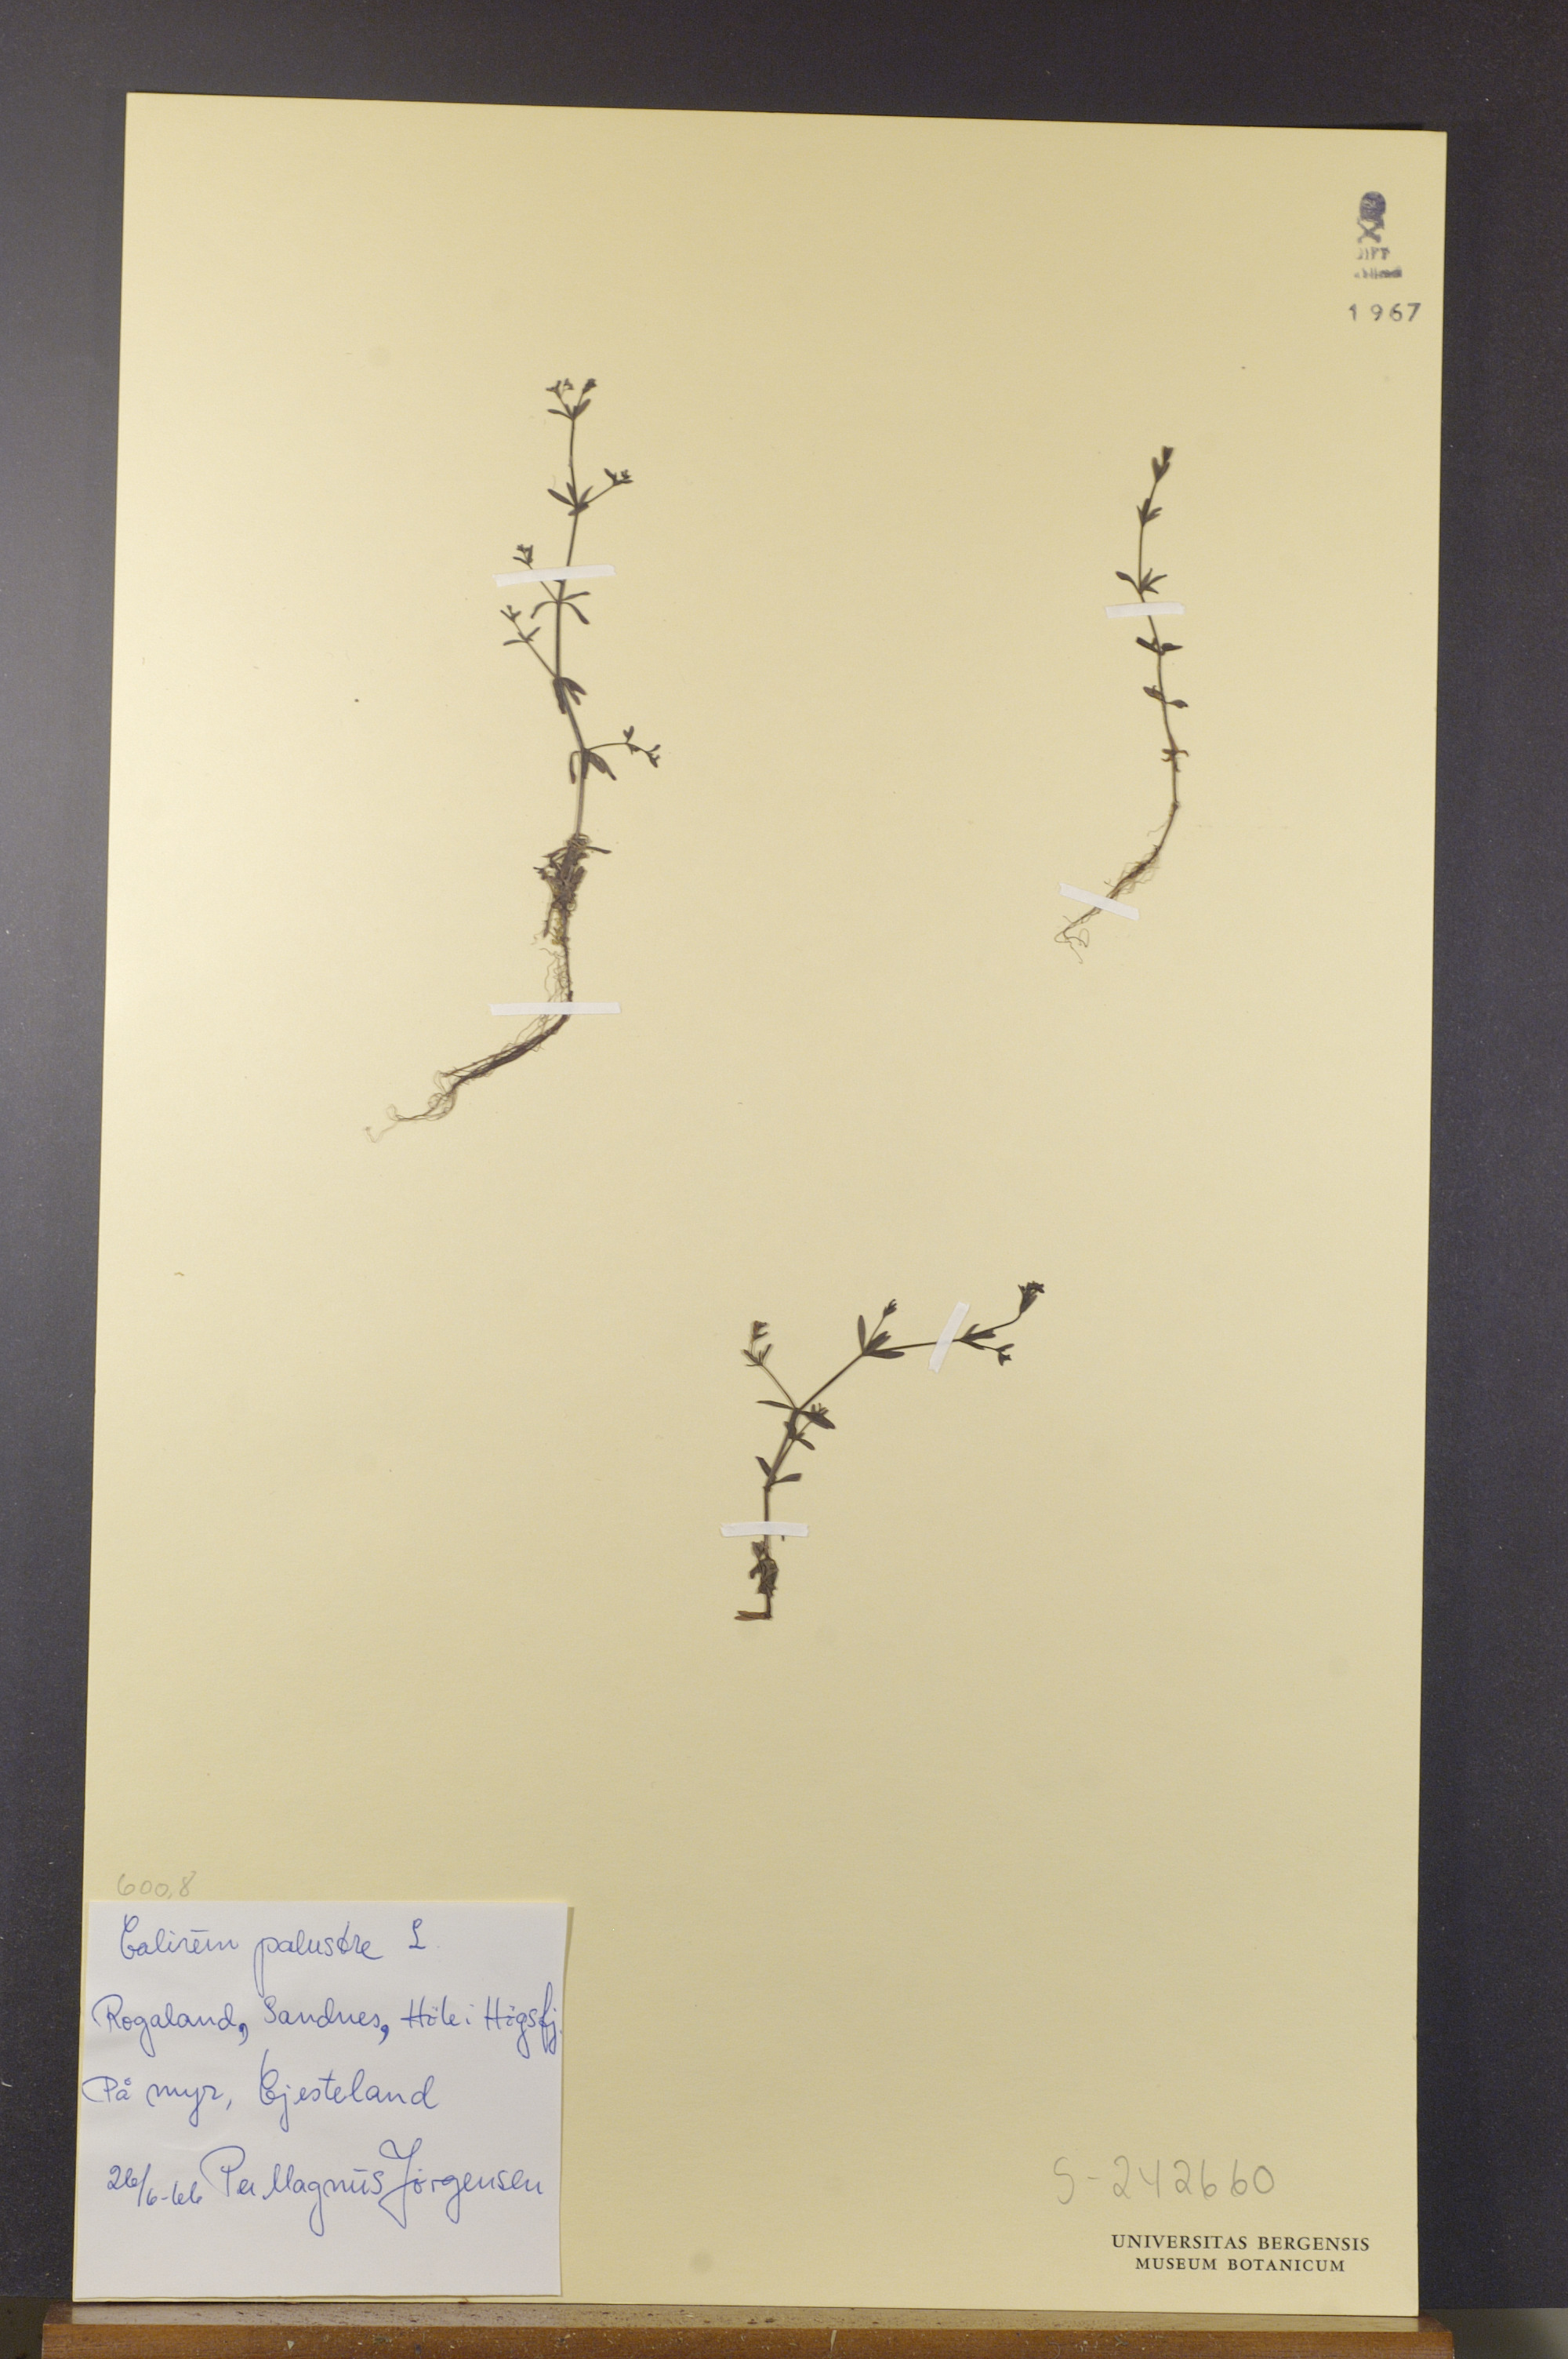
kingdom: Plantae
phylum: Tracheophyta
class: Magnoliopsida
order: Gentianales
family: Rubiaceae
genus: Galium
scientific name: Galium palustre
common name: Common marsh-bedstraw
